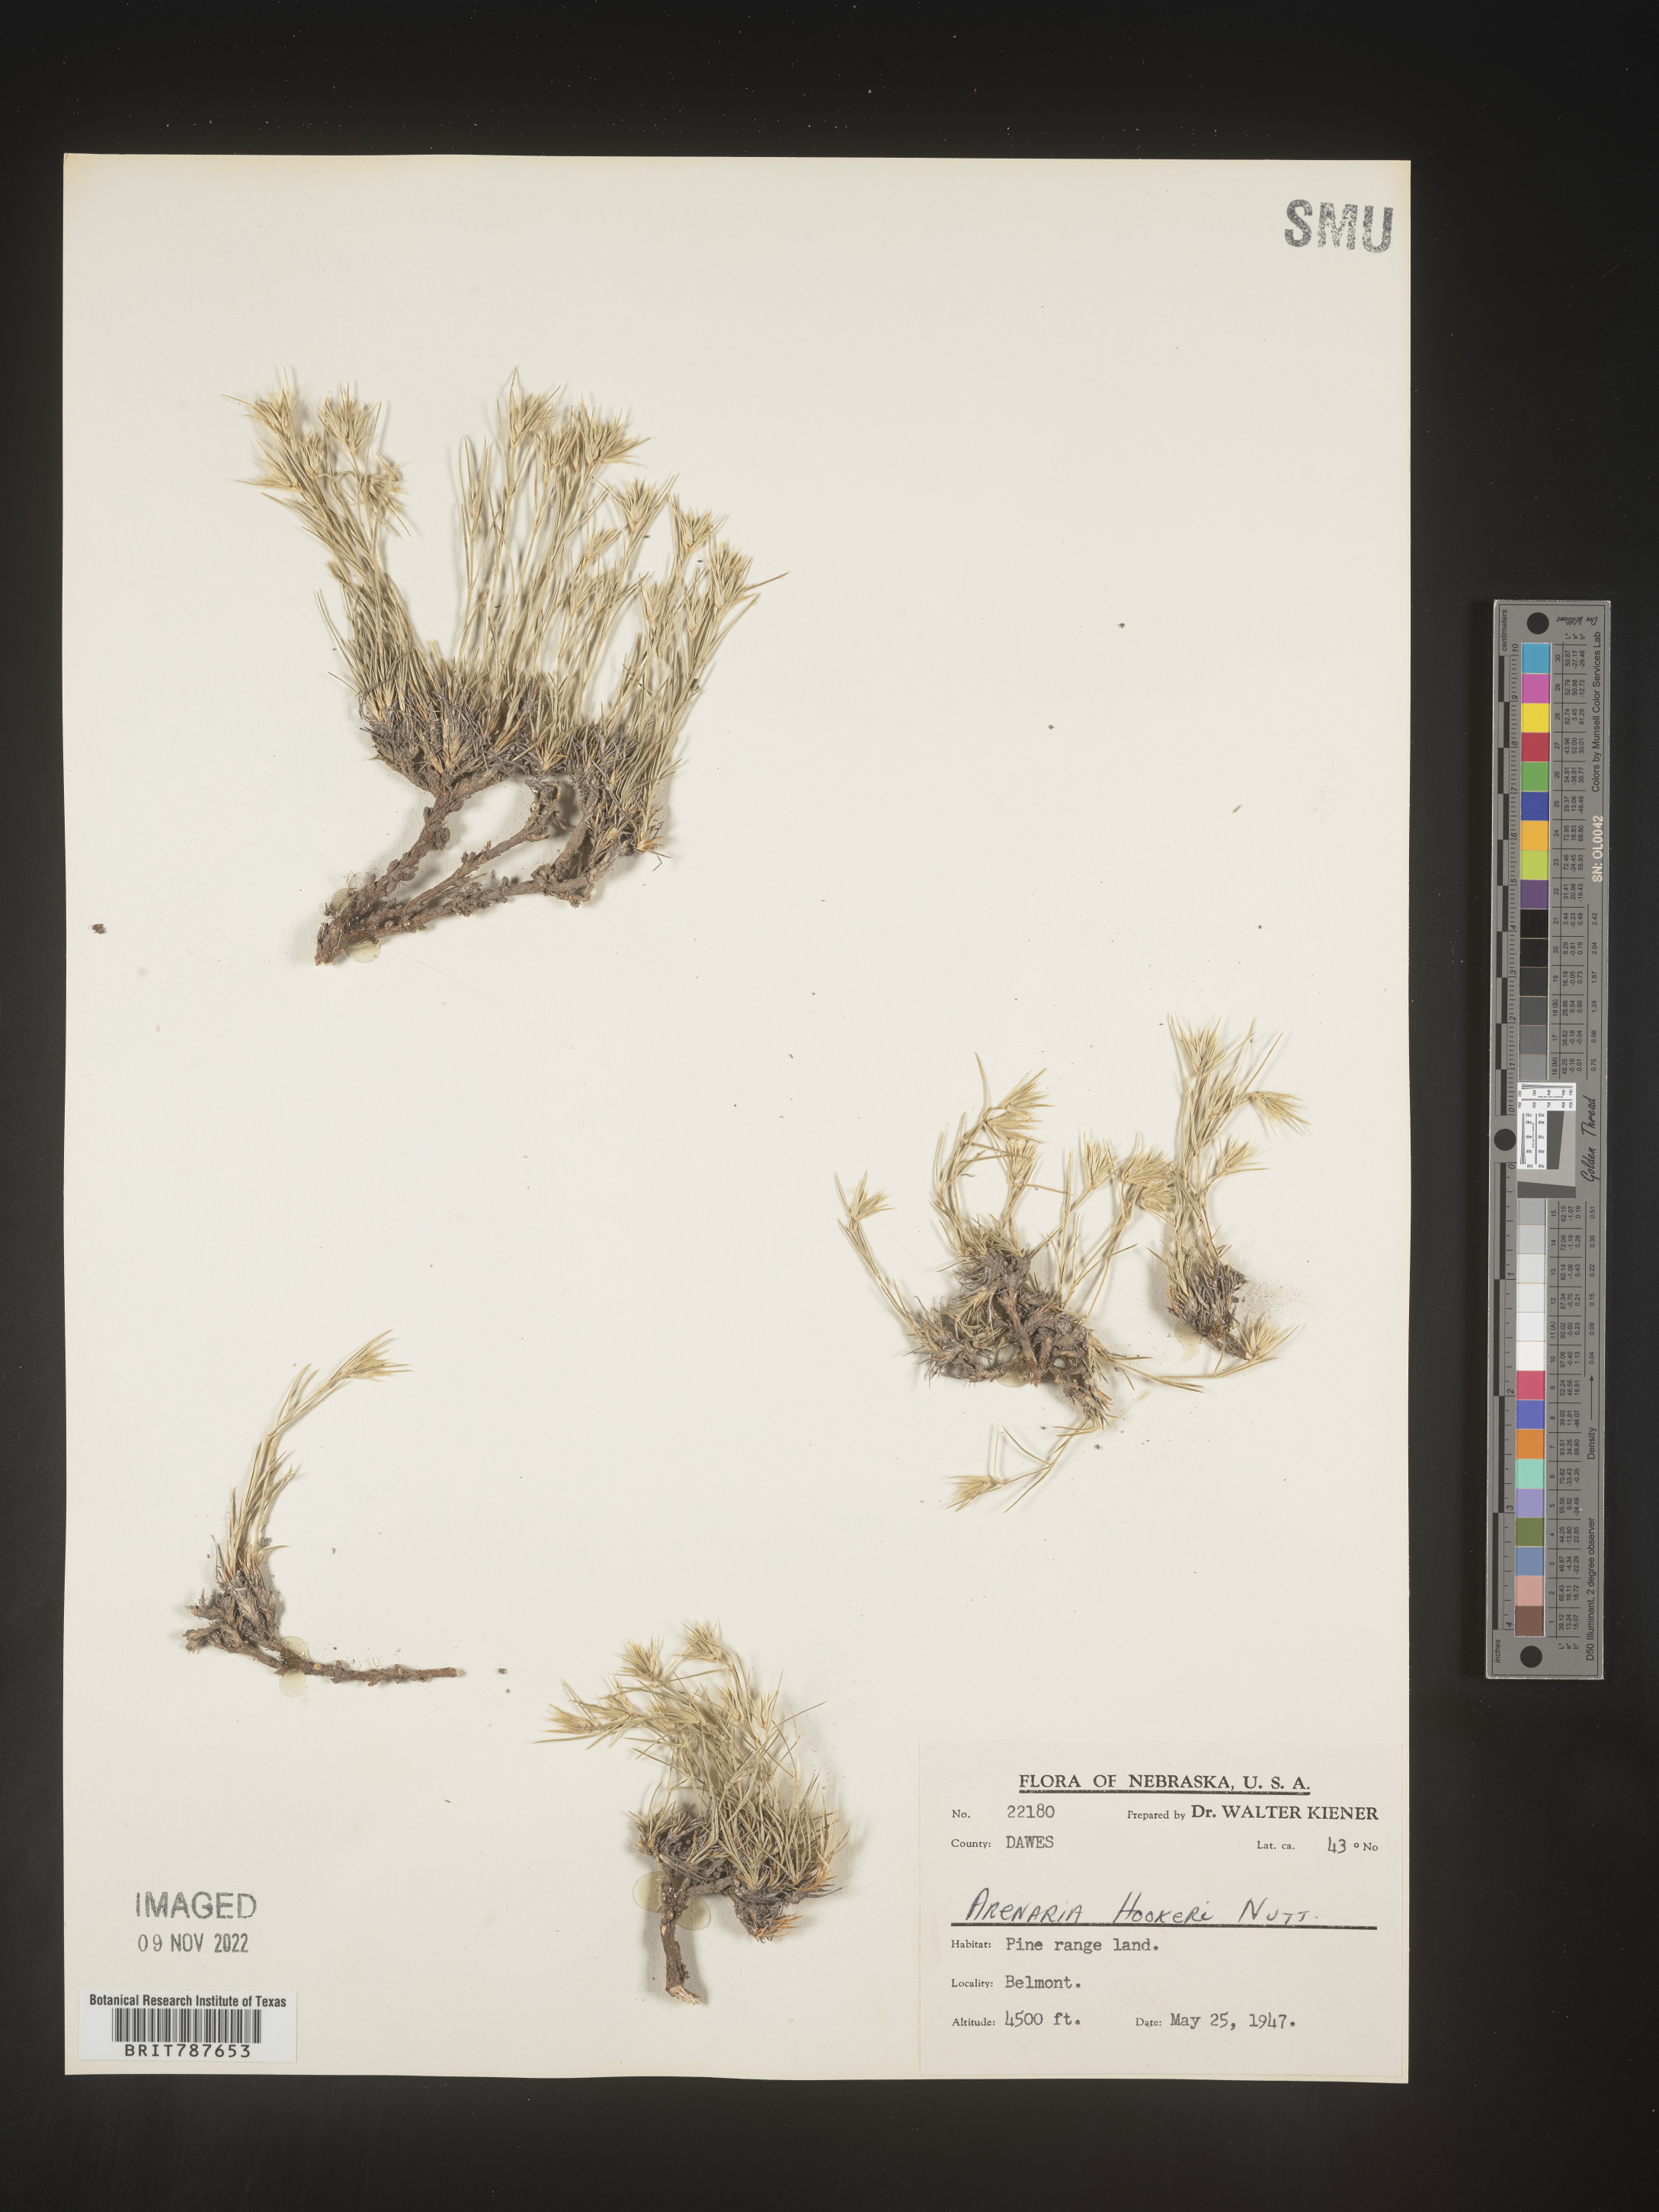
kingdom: Plantae
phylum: Tracheophyta
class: Magnoliopsida
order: Caryophyllales
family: Caryophyllaceae
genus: Arenaria
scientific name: Arenaria
